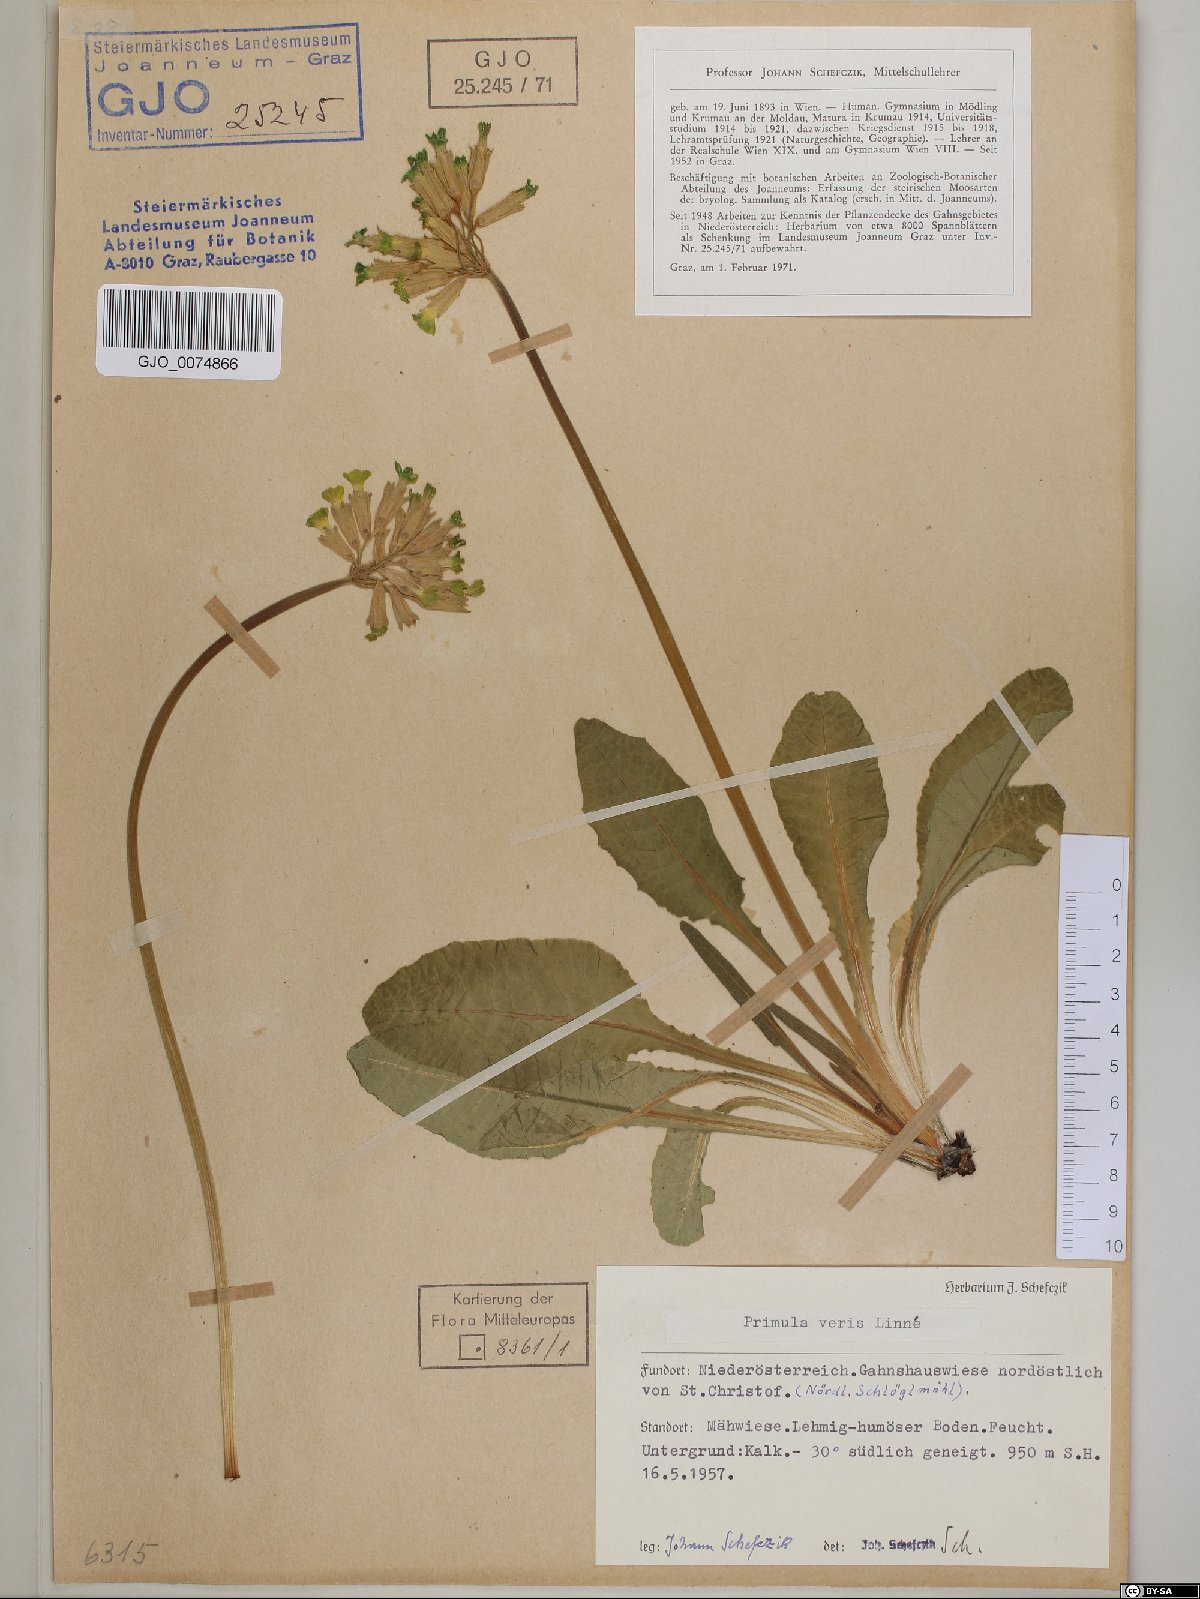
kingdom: Plantae
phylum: Tracheophyta
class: Magnoliopsida
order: Ericales
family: Primulaceae
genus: Primula
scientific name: Primula veris
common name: Cowslip
